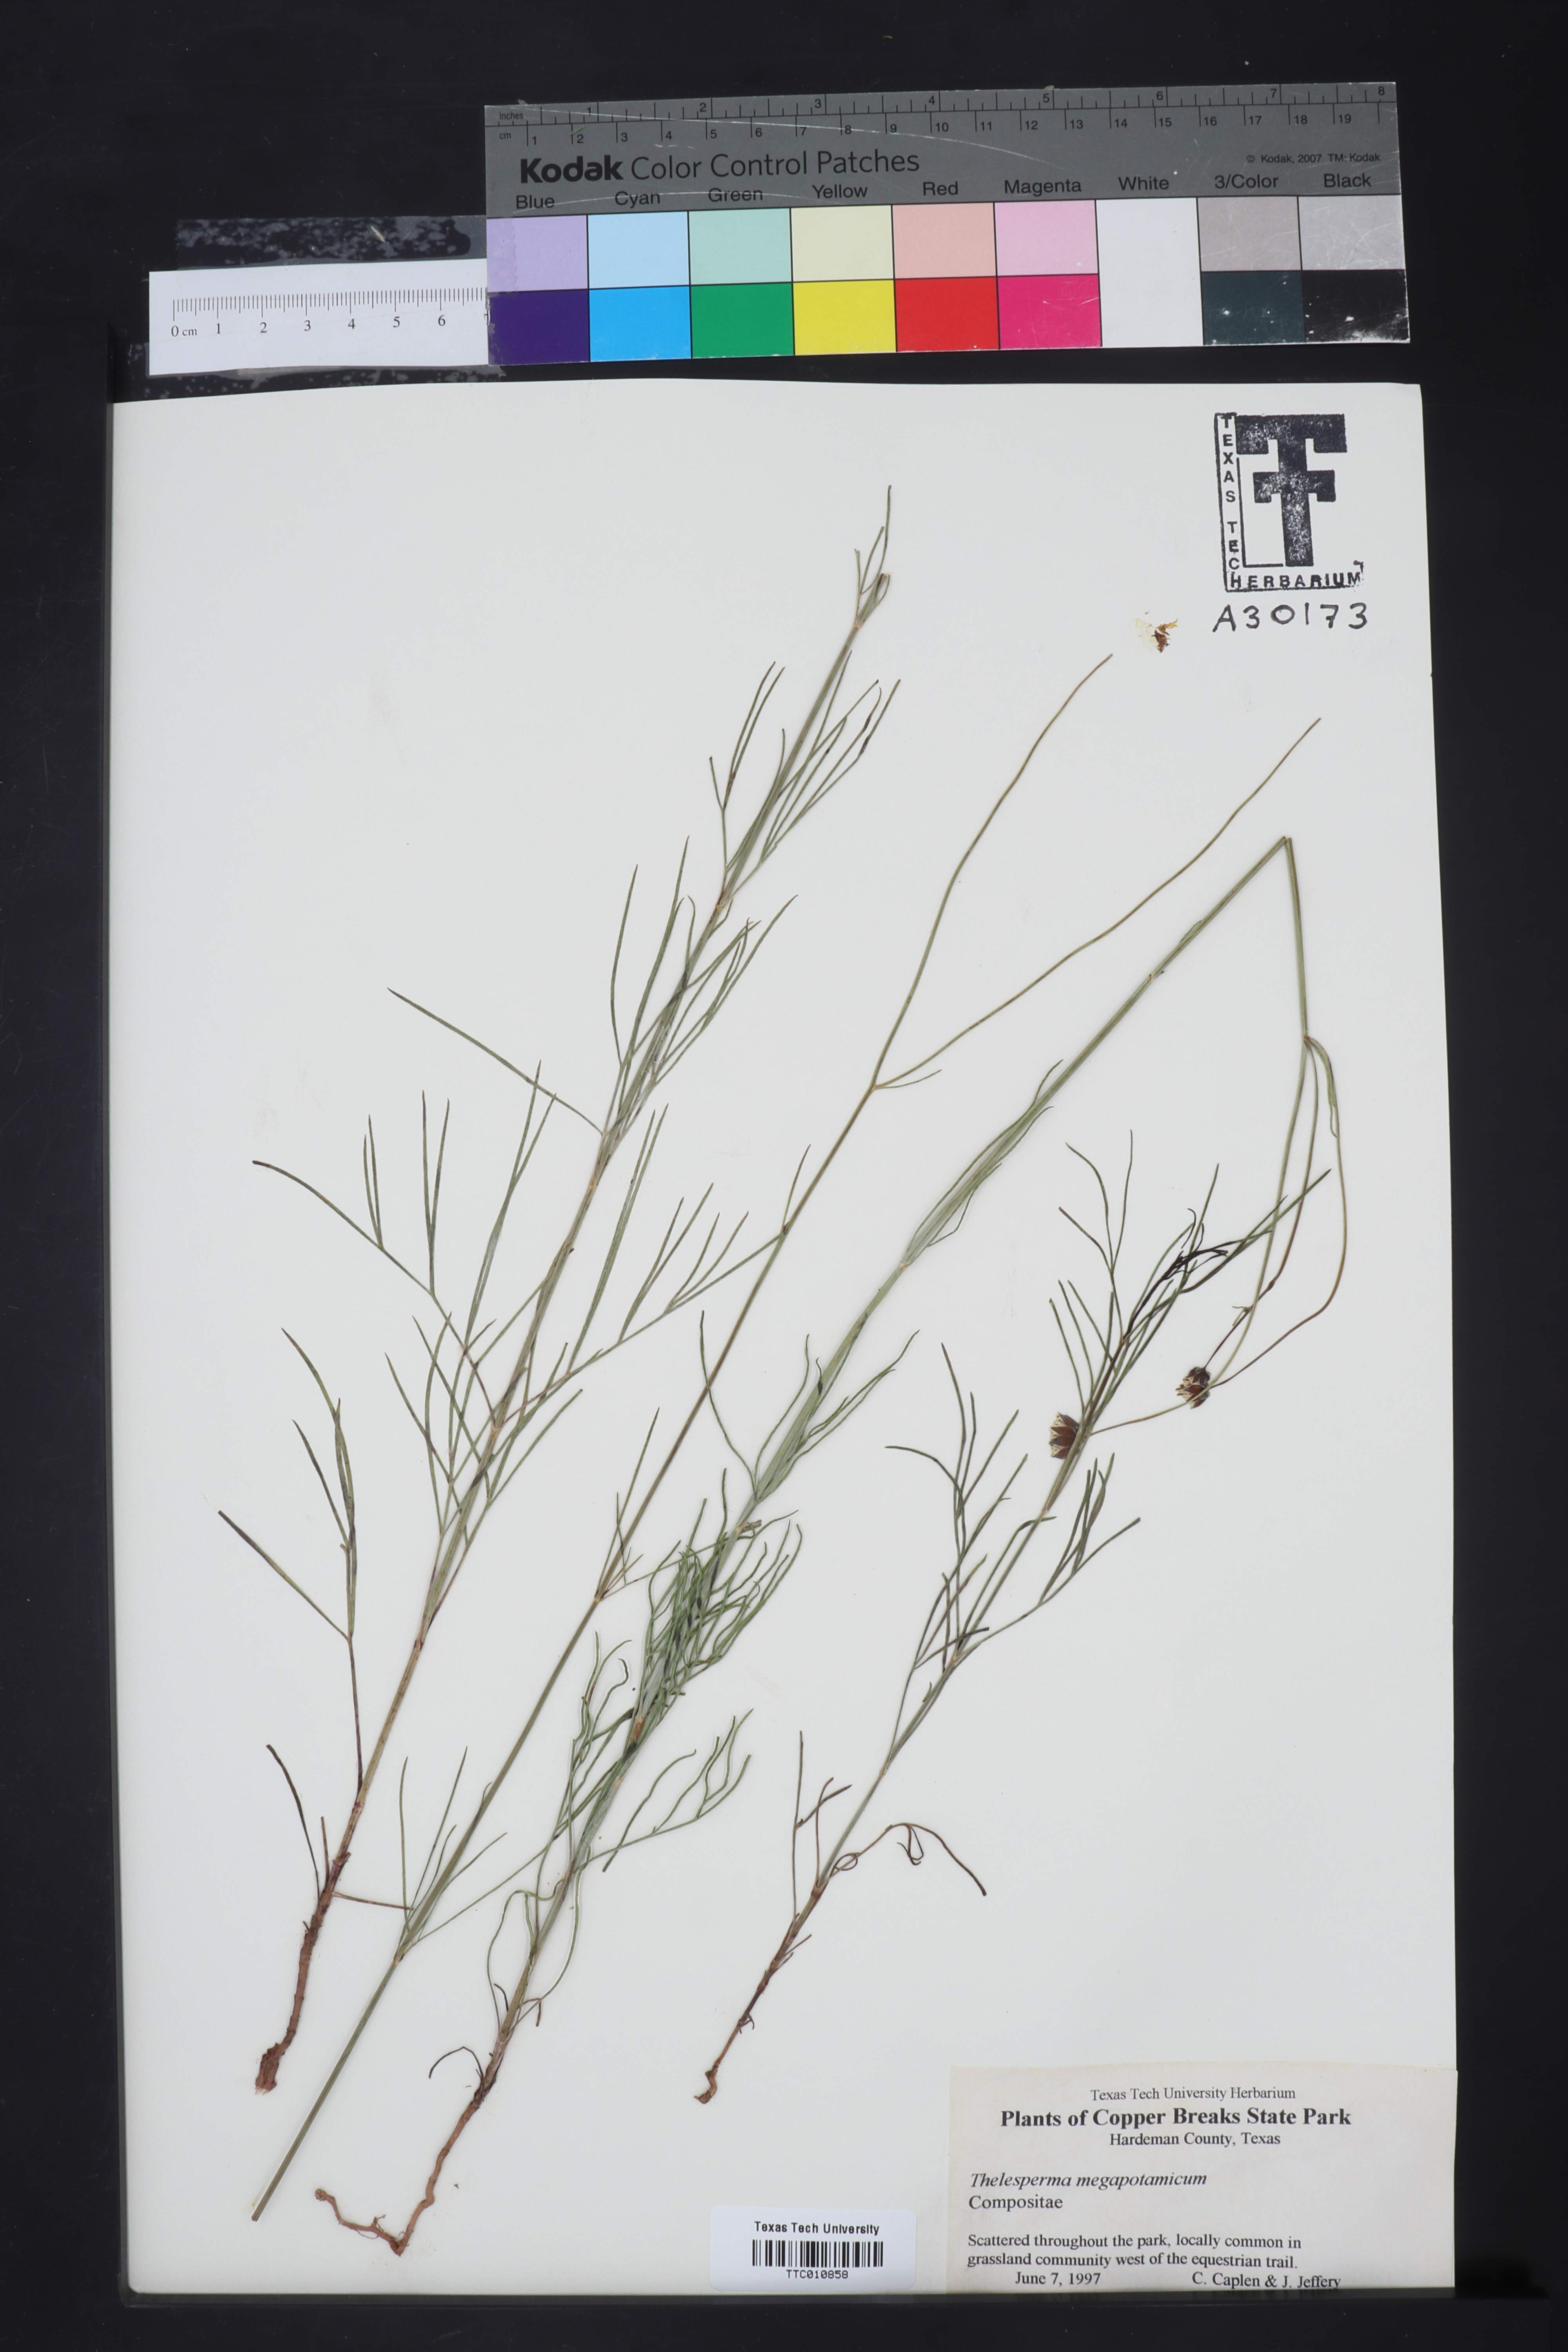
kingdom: Plantae
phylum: Tracheophyta
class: Magnoliopsida
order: Asterales
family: Asteraceae
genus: Thelesperma
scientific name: Thelesperma megapotamicum
